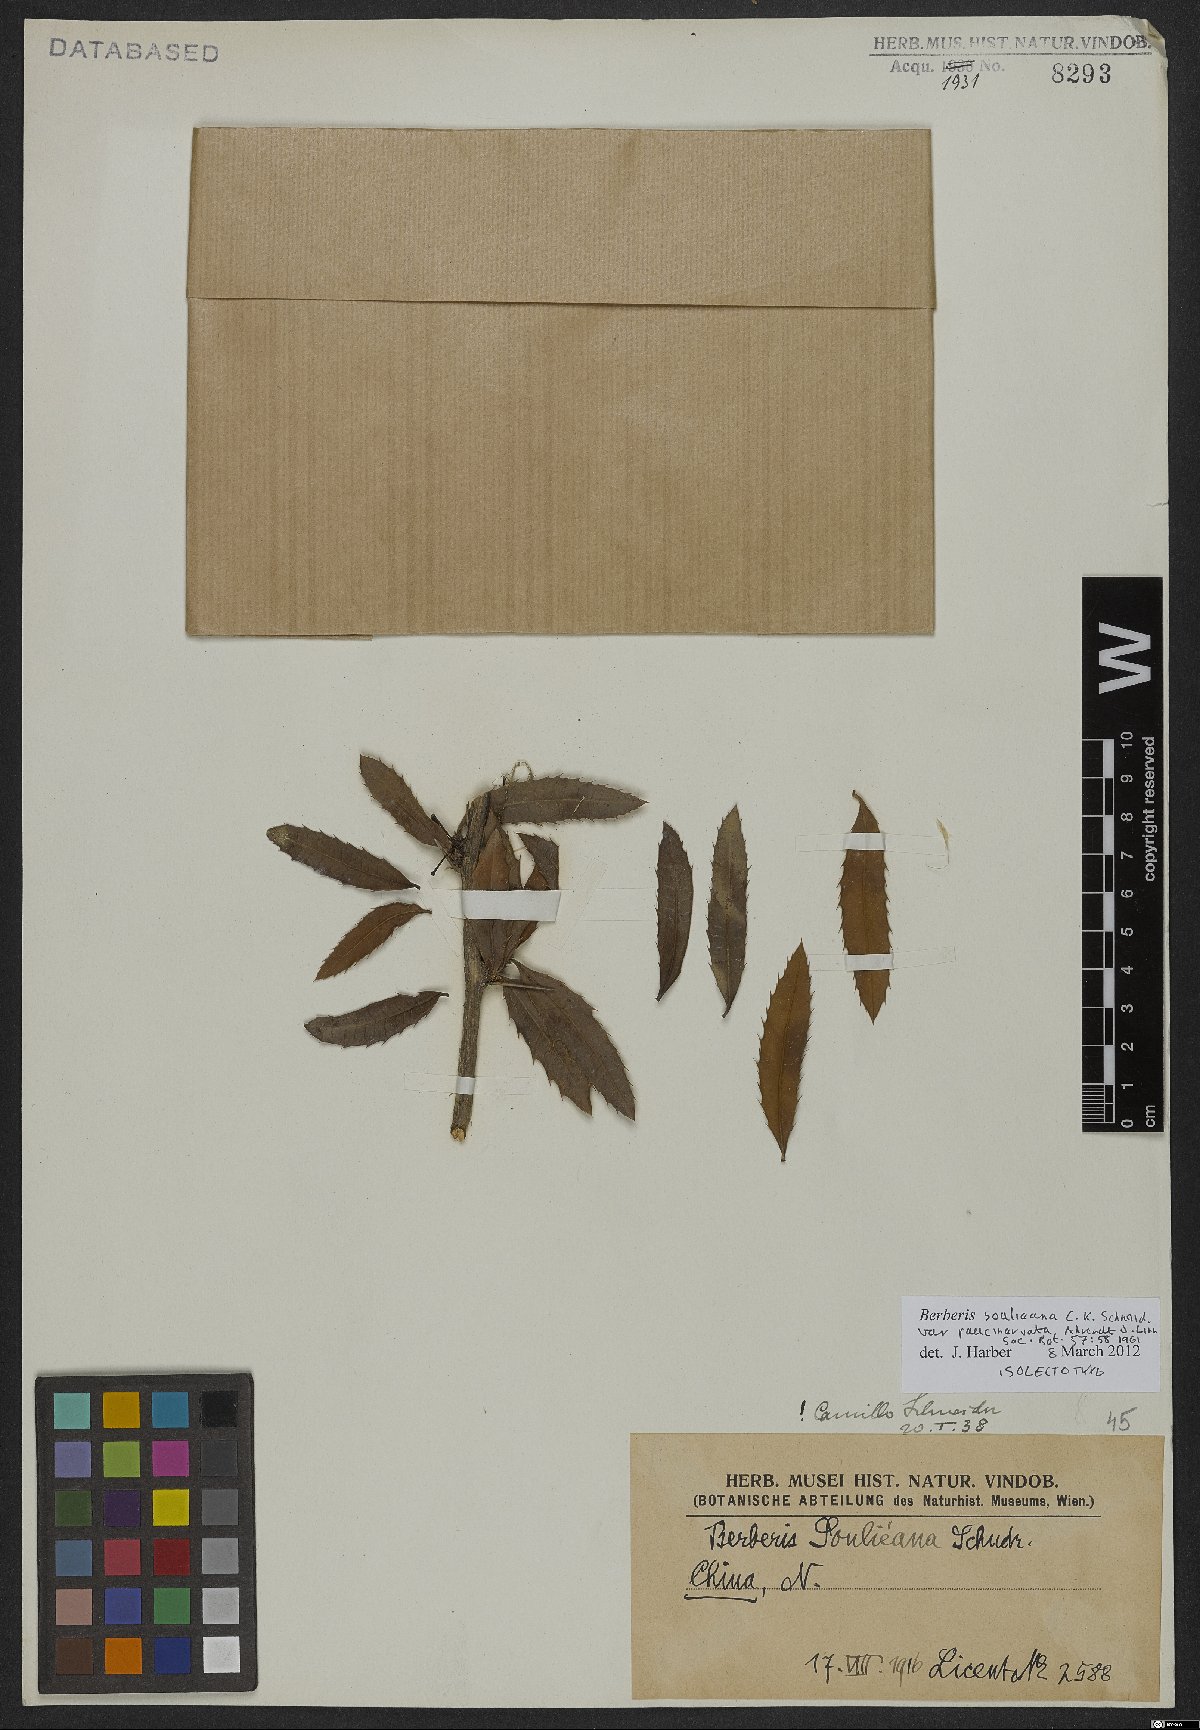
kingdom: Plantae
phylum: Tracheophyta
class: Magnoliopsida
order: Ranunculales
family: Berberidaceae
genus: Berberis
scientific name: Berberis soulieana
